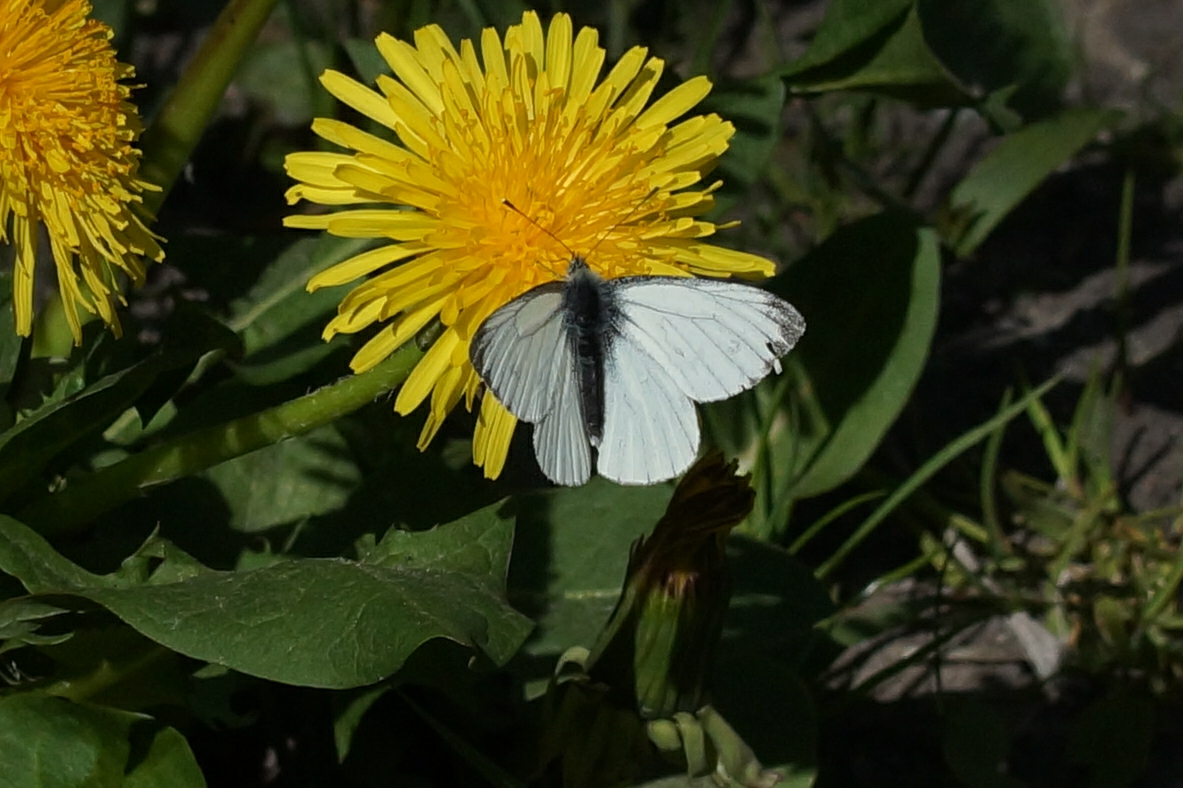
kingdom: Animalia
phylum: Arthropoda
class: Insecta
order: Lepidoptera
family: Pieridae
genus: Pieris
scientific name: Pieris napi
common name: Grønåret kålsommerfugl
